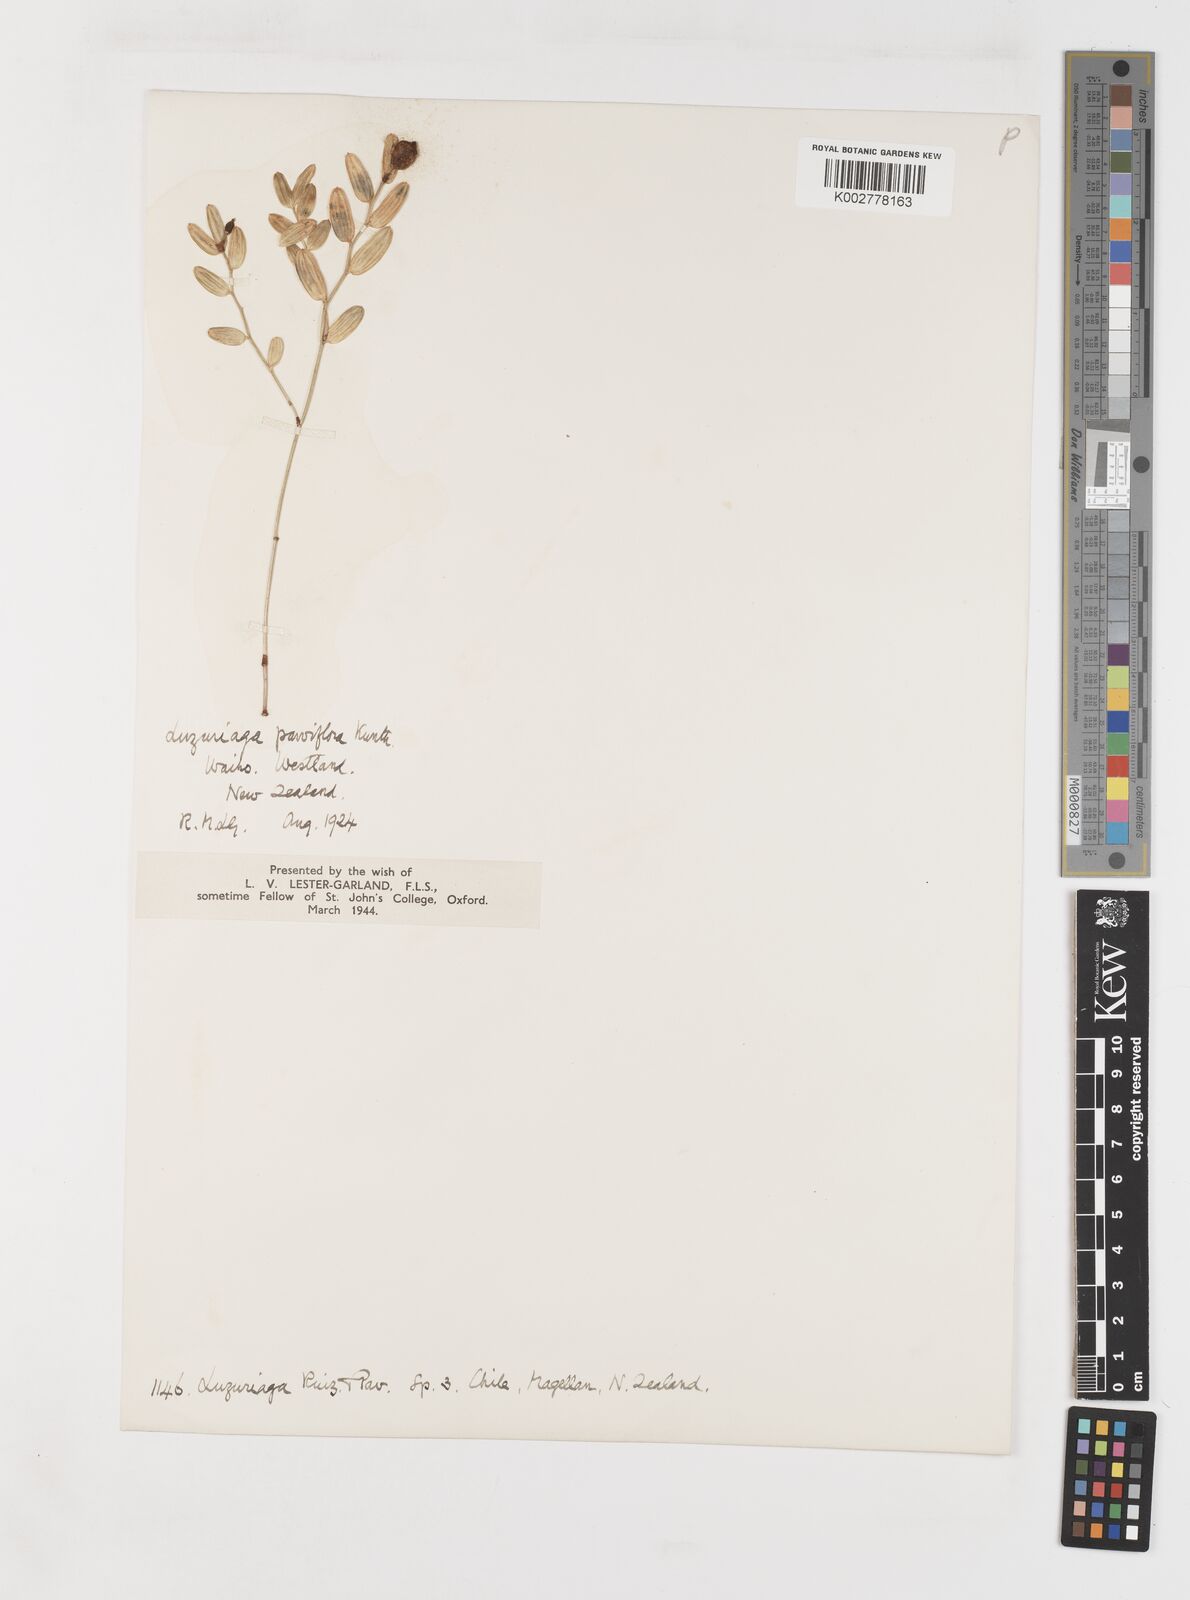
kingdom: Plantae
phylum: Tracheophyta
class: Liliopsida
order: Liliales
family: Alstroemeriaceae
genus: Luzuriaga
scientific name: Luzuriaga parviflora
